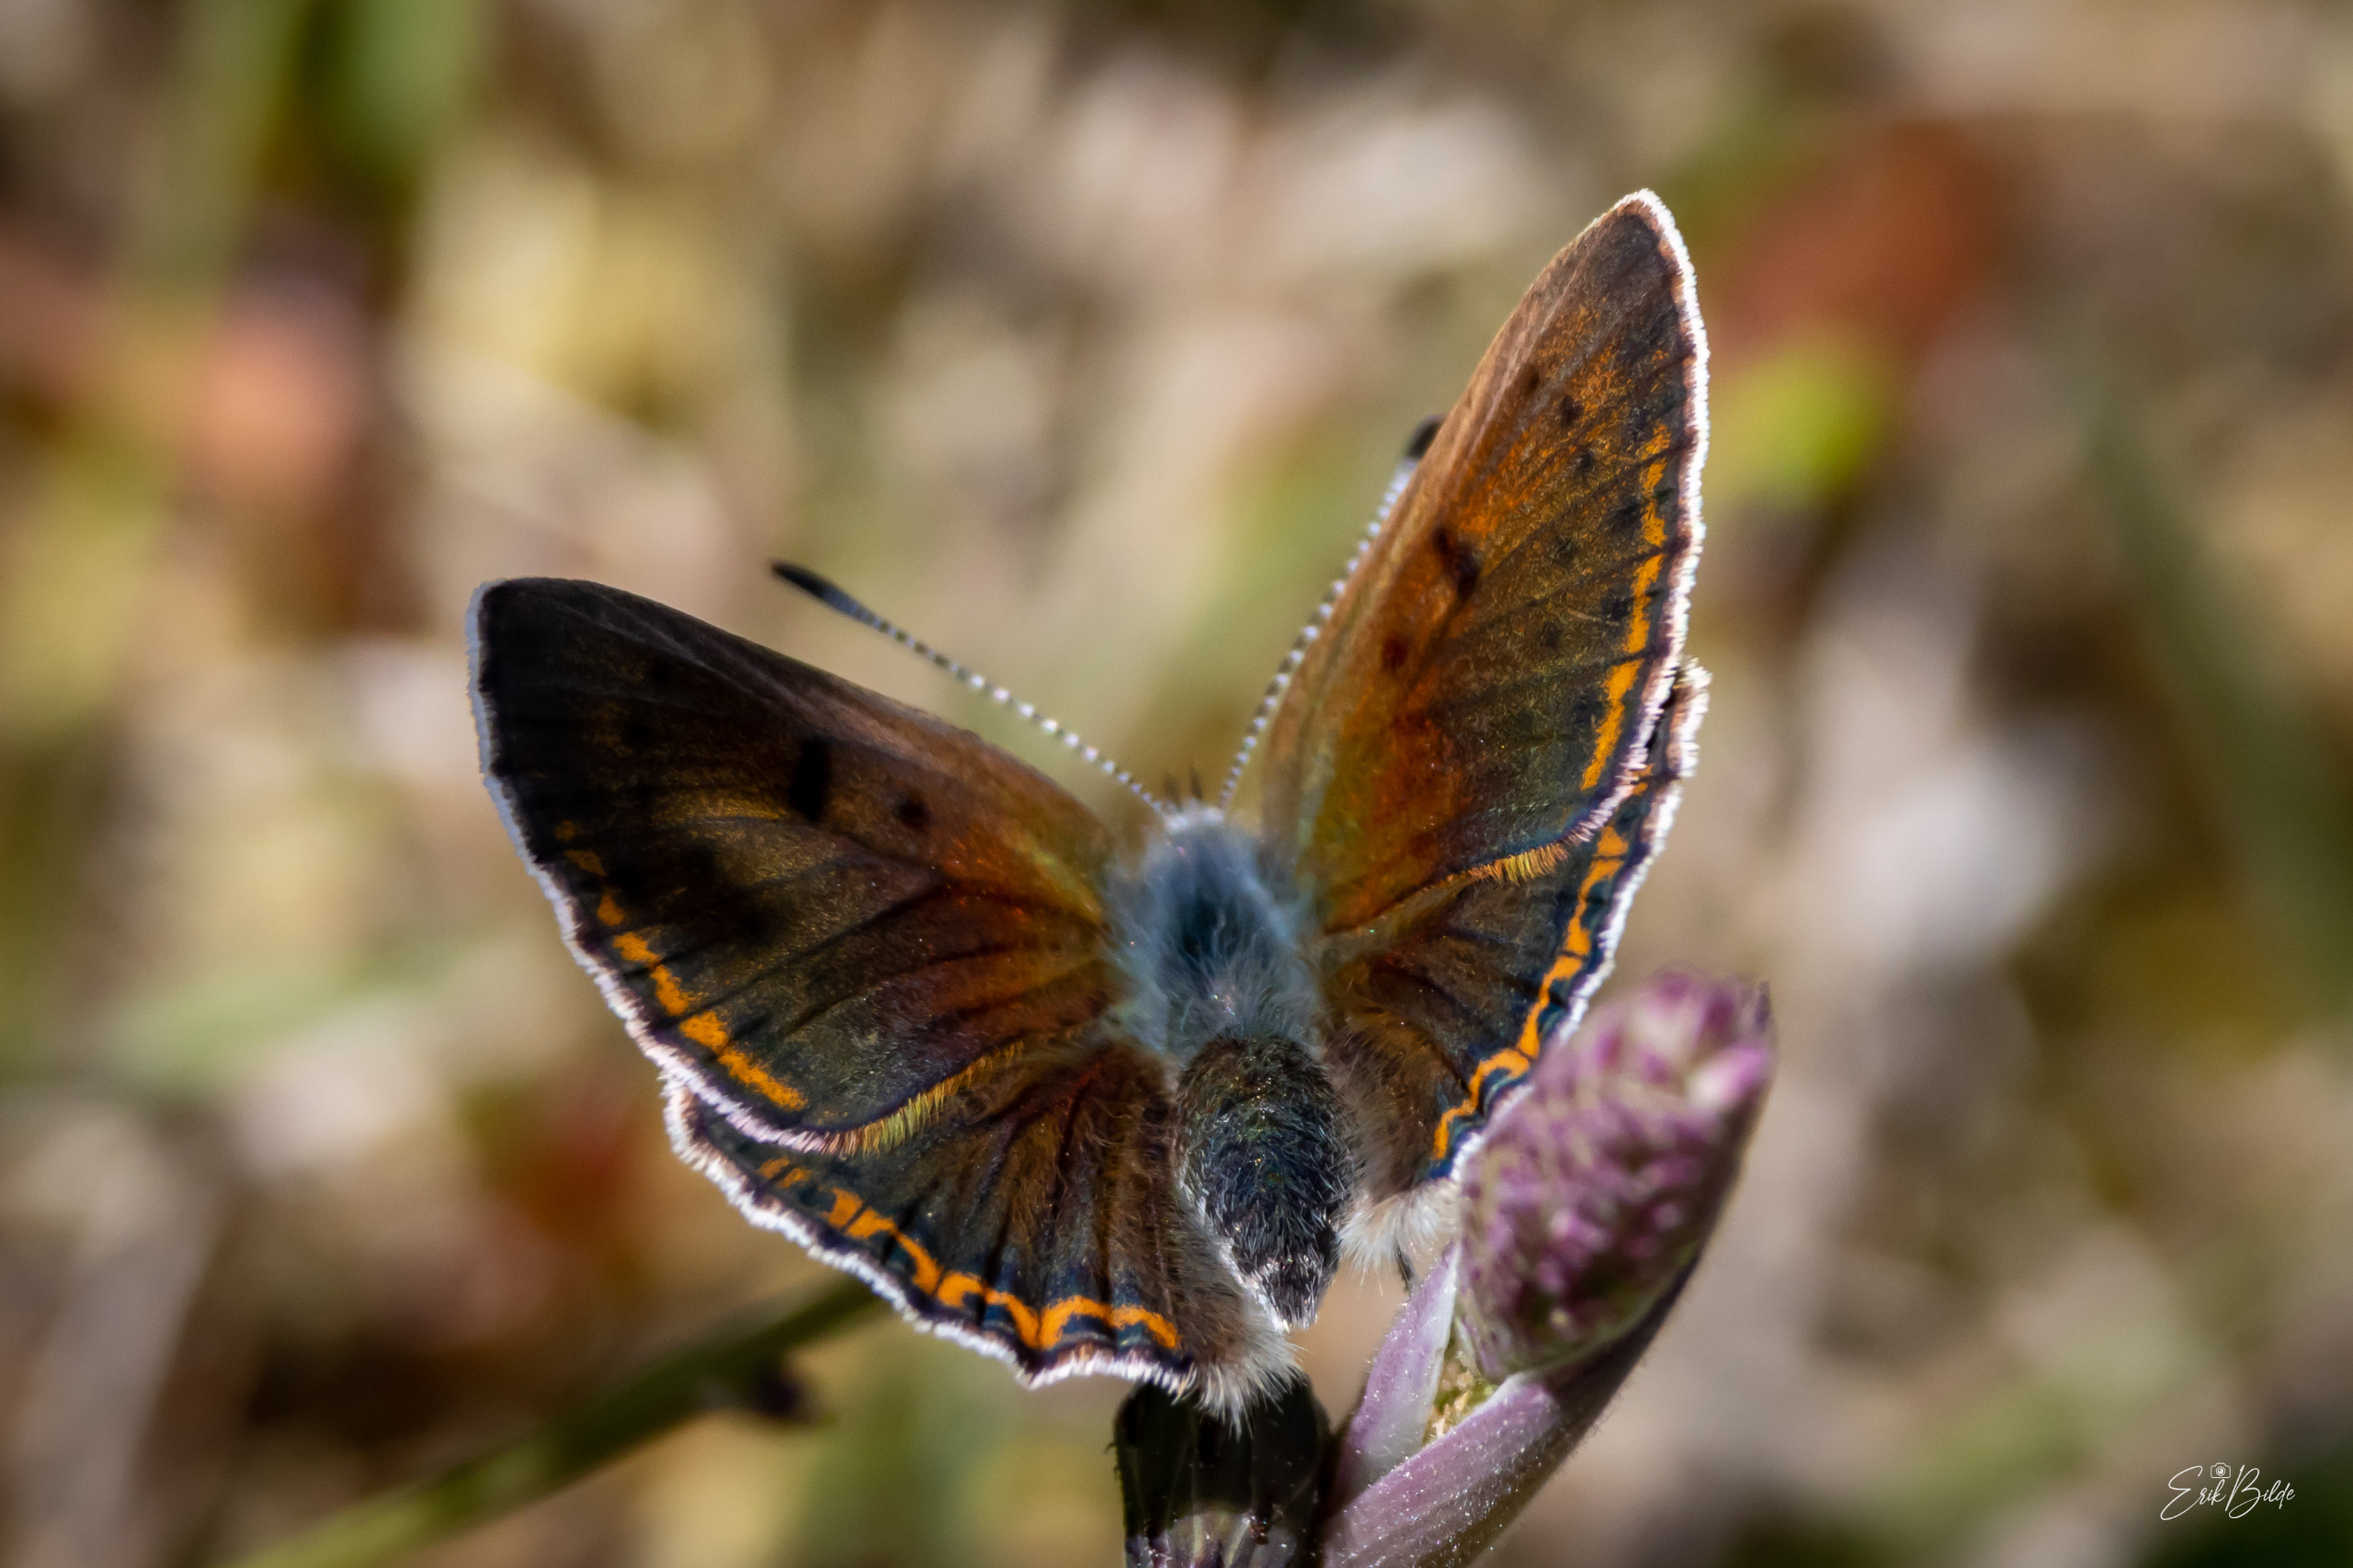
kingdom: Animalia
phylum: Arthropoda
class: Insecta
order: Lepidoptera
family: Lycaenidae
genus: Palaeochrysophanus
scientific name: Palaeochrysophanus hippothoe
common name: Violetrandet ildfugl
